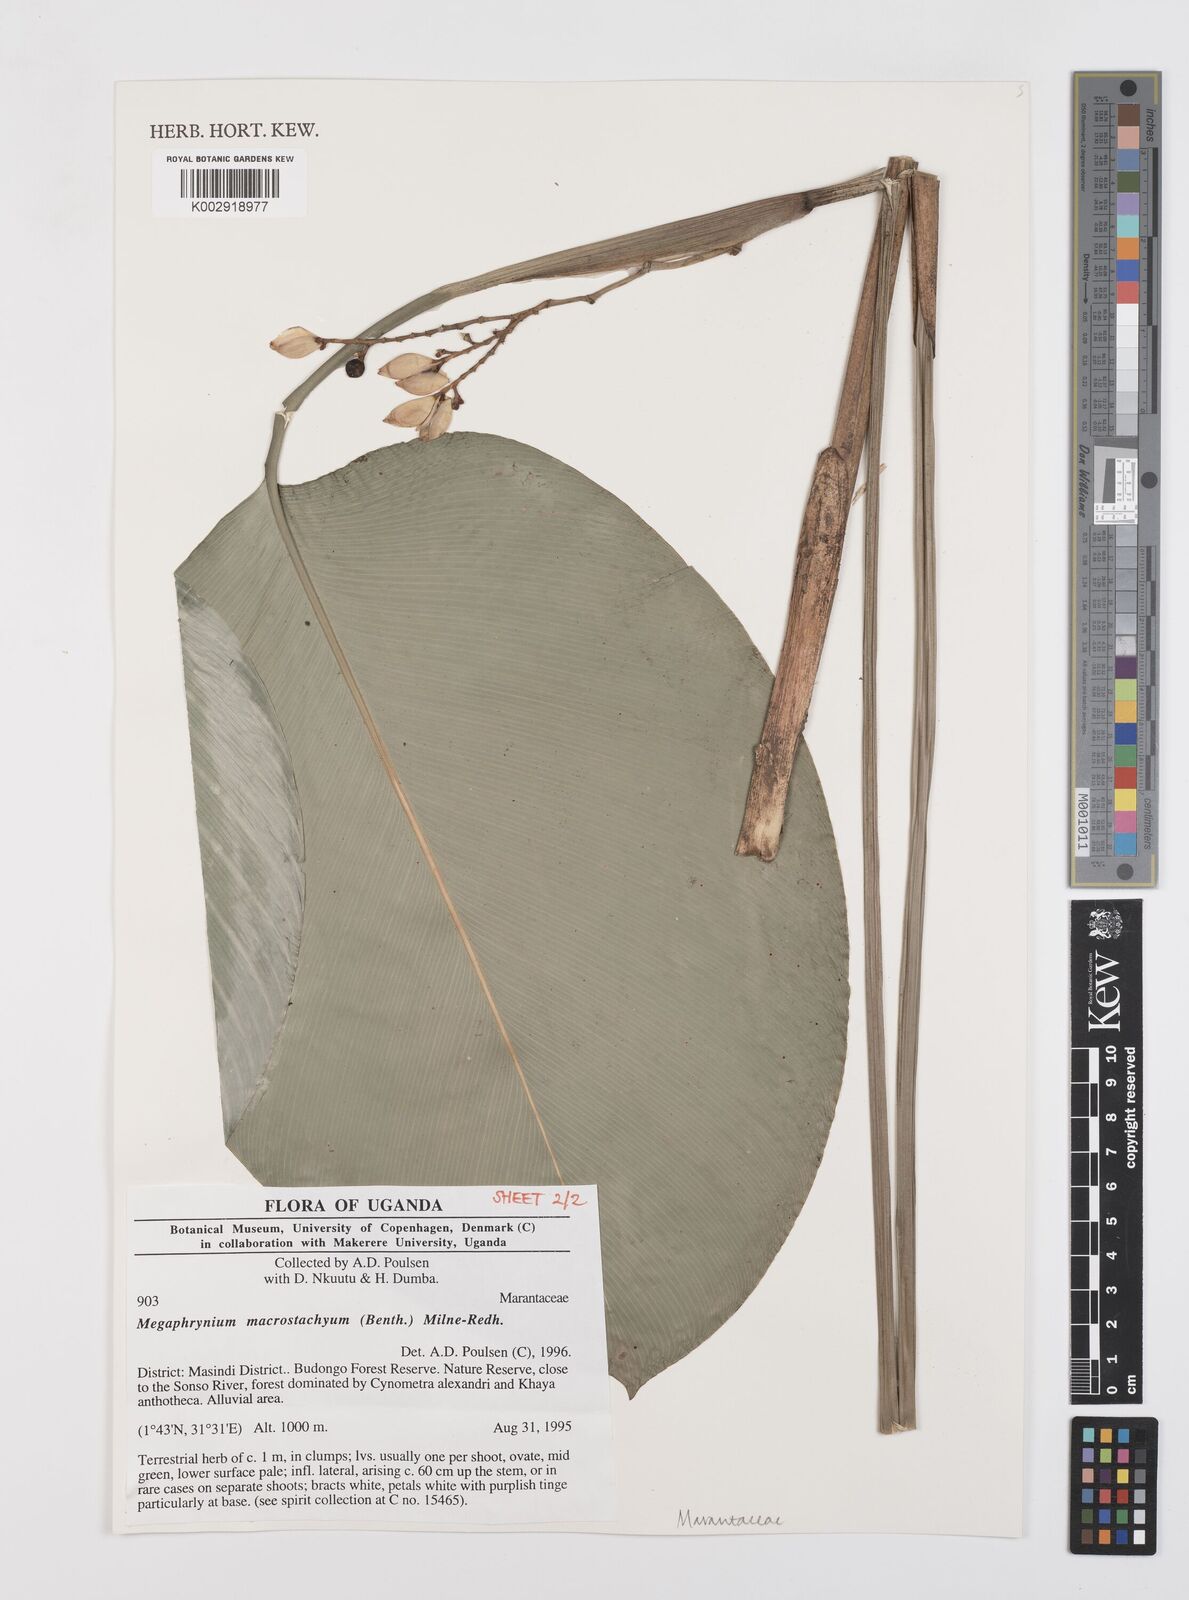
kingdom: Plantae
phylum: Tracheophyta
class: Liliopsida
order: Zingiberales
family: Marantaceae
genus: Megaphrynium
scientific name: Megaphrynium macrostachyum
